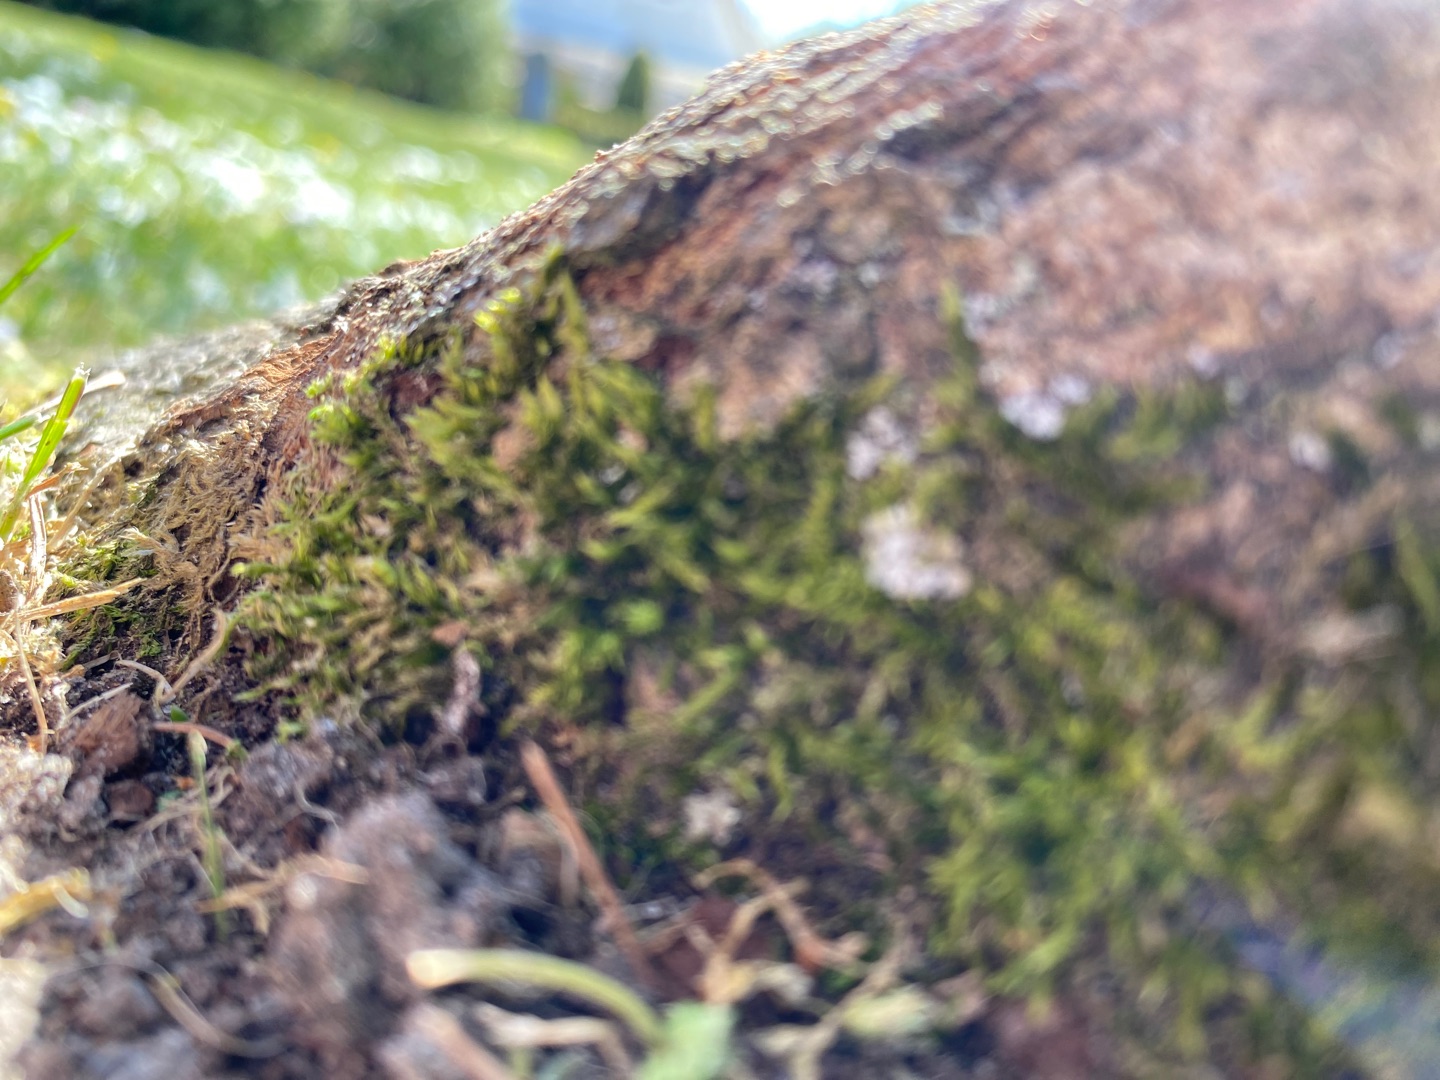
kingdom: Plantae
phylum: Bryophyta
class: Bryopsida
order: Hypnales
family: Hypnaceae
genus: Hypnum
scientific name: Hypnum
